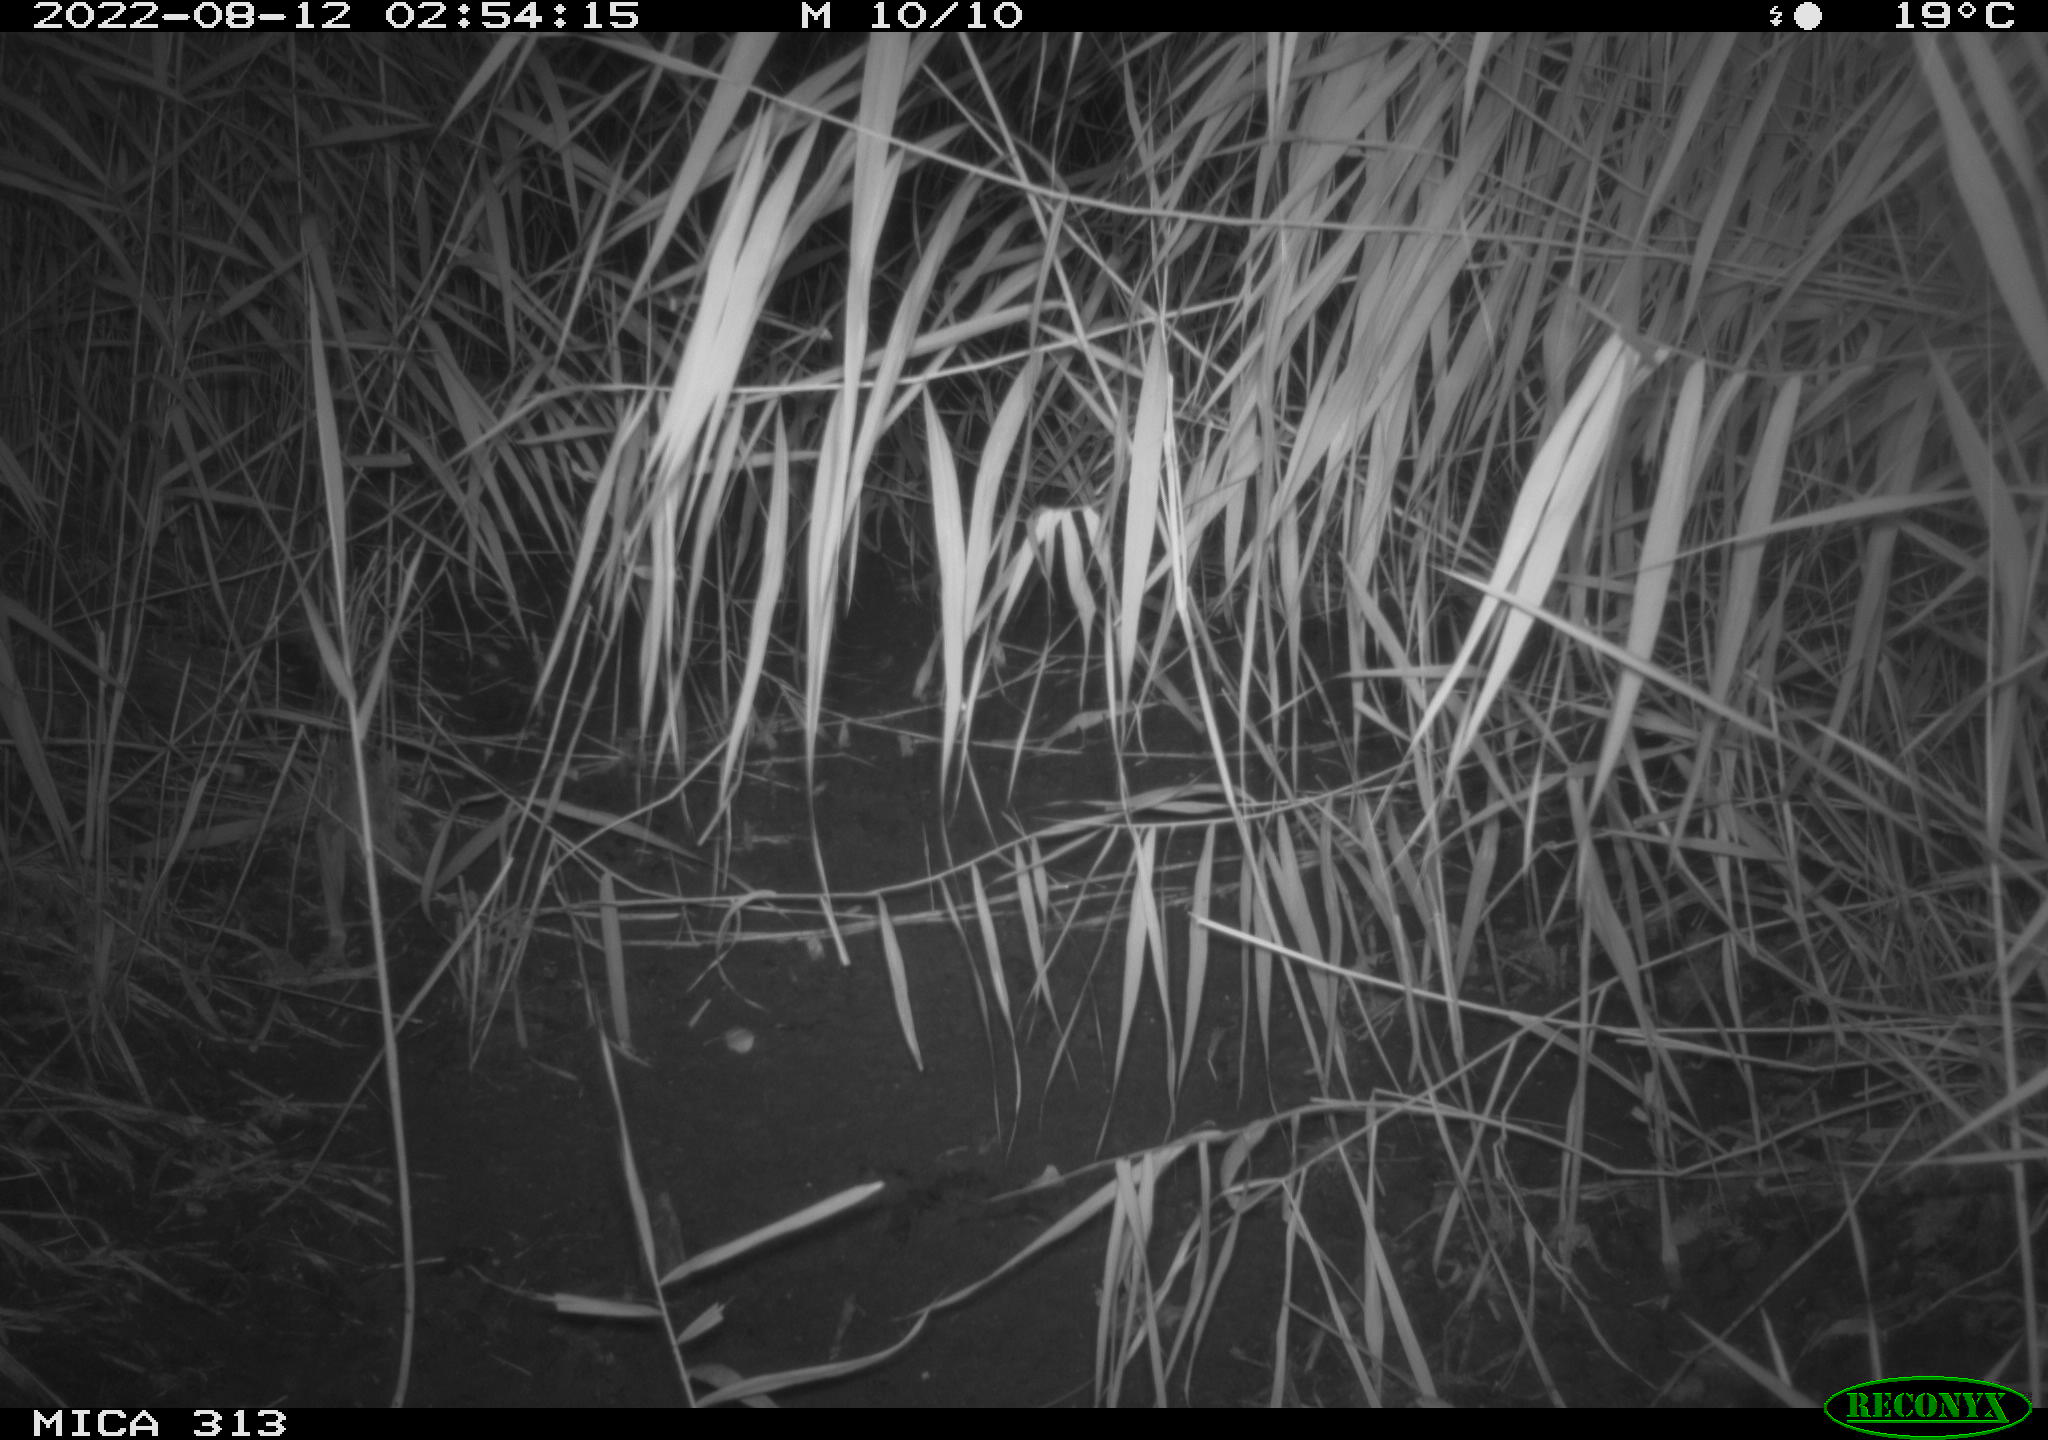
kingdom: Animalia
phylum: Chordata
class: Mammalia
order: Rodentia
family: Muridae
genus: Rattus
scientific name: Rattus norvegicus
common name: Brown rat
